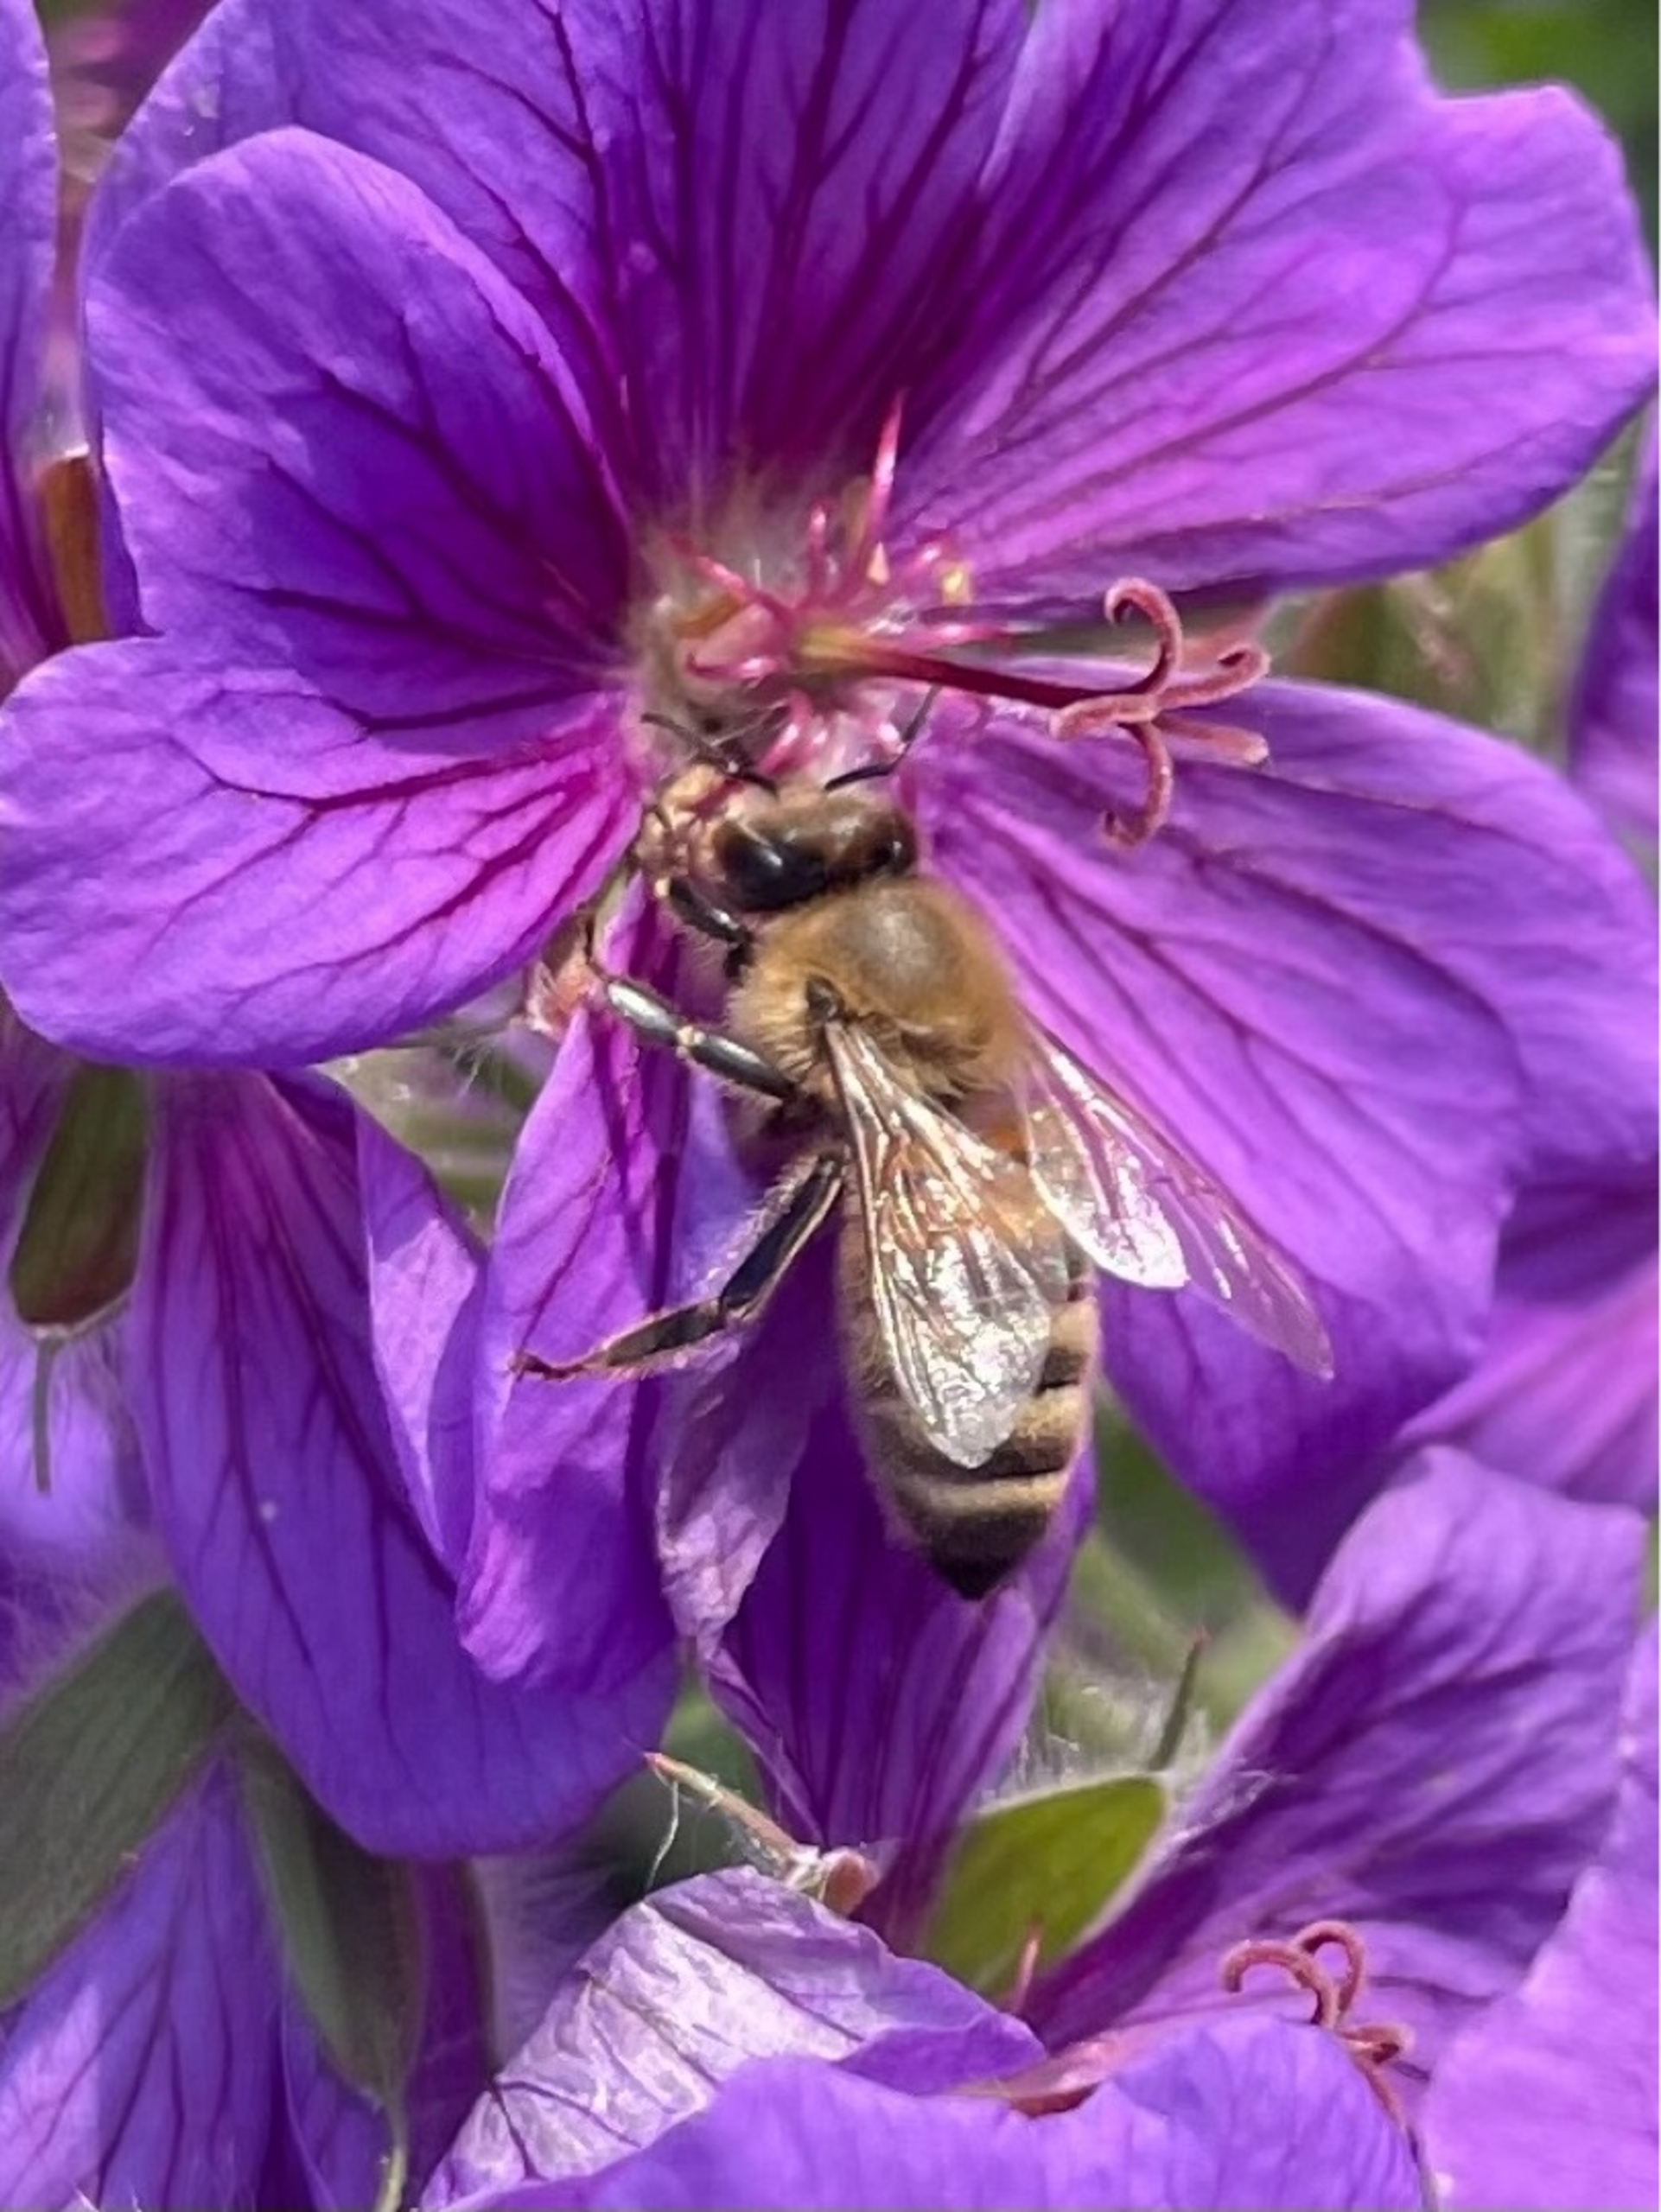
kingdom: Animalia
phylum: Arthropoda
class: Insecta
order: Hymenoptera
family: Apidae
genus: Apis
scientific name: Apis mellifera
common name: Honningbi
